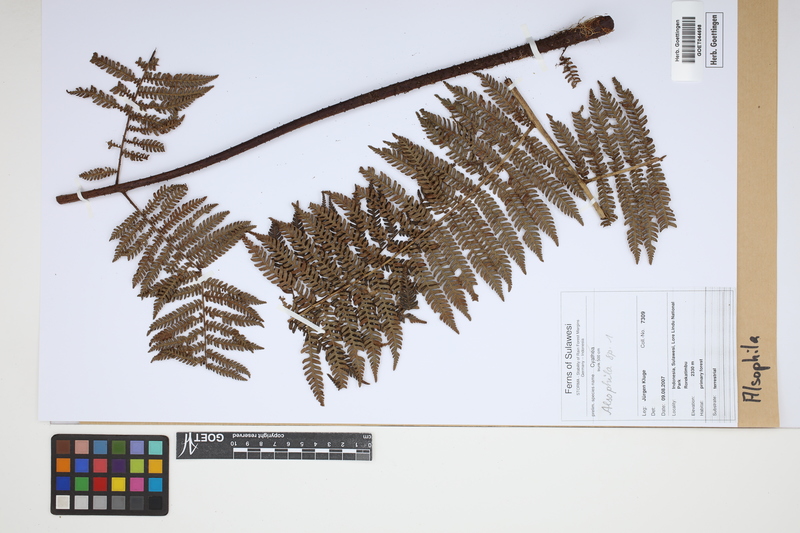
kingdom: Plantae
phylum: Tracheophyta
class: Polypodiopsida
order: Cyatheales
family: Cyatheaceae
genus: Alsophila
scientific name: Alsophila
